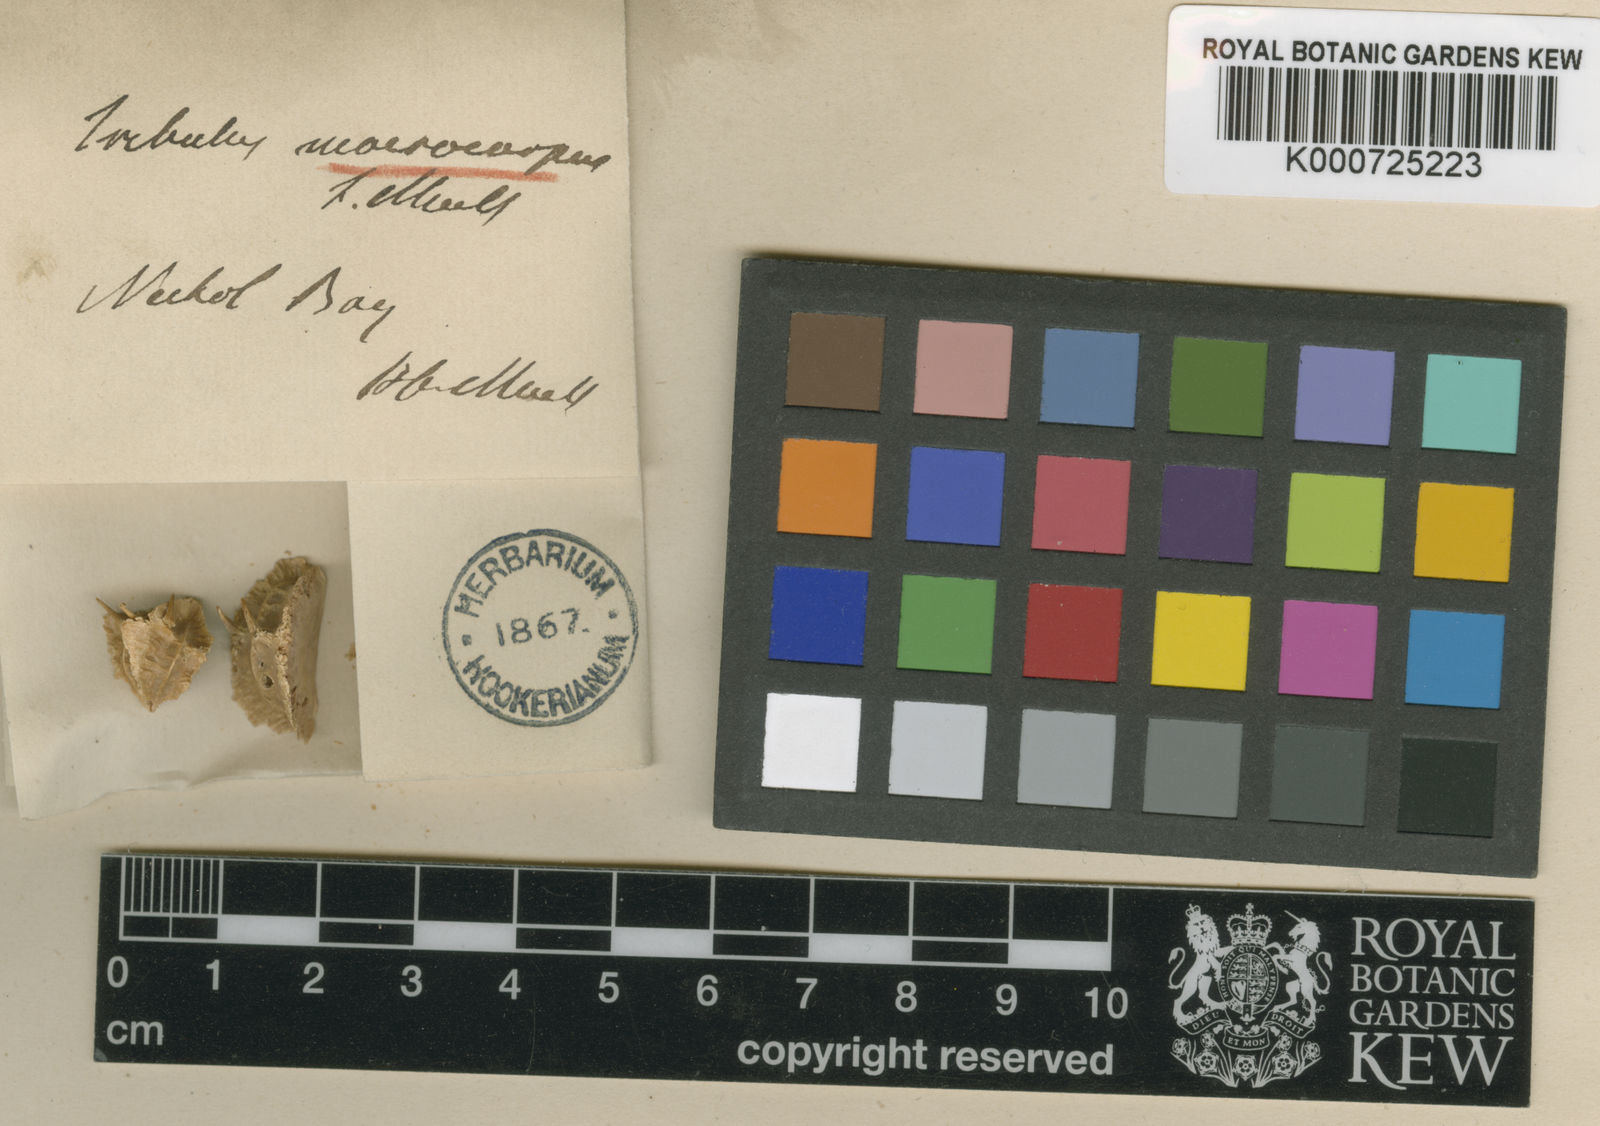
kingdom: Plantae
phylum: Tracheophyta
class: Magnoliopsida
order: Zygophyllales
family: Zygophyllaceae
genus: Tribulus
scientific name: Tribulus macrocarpus
